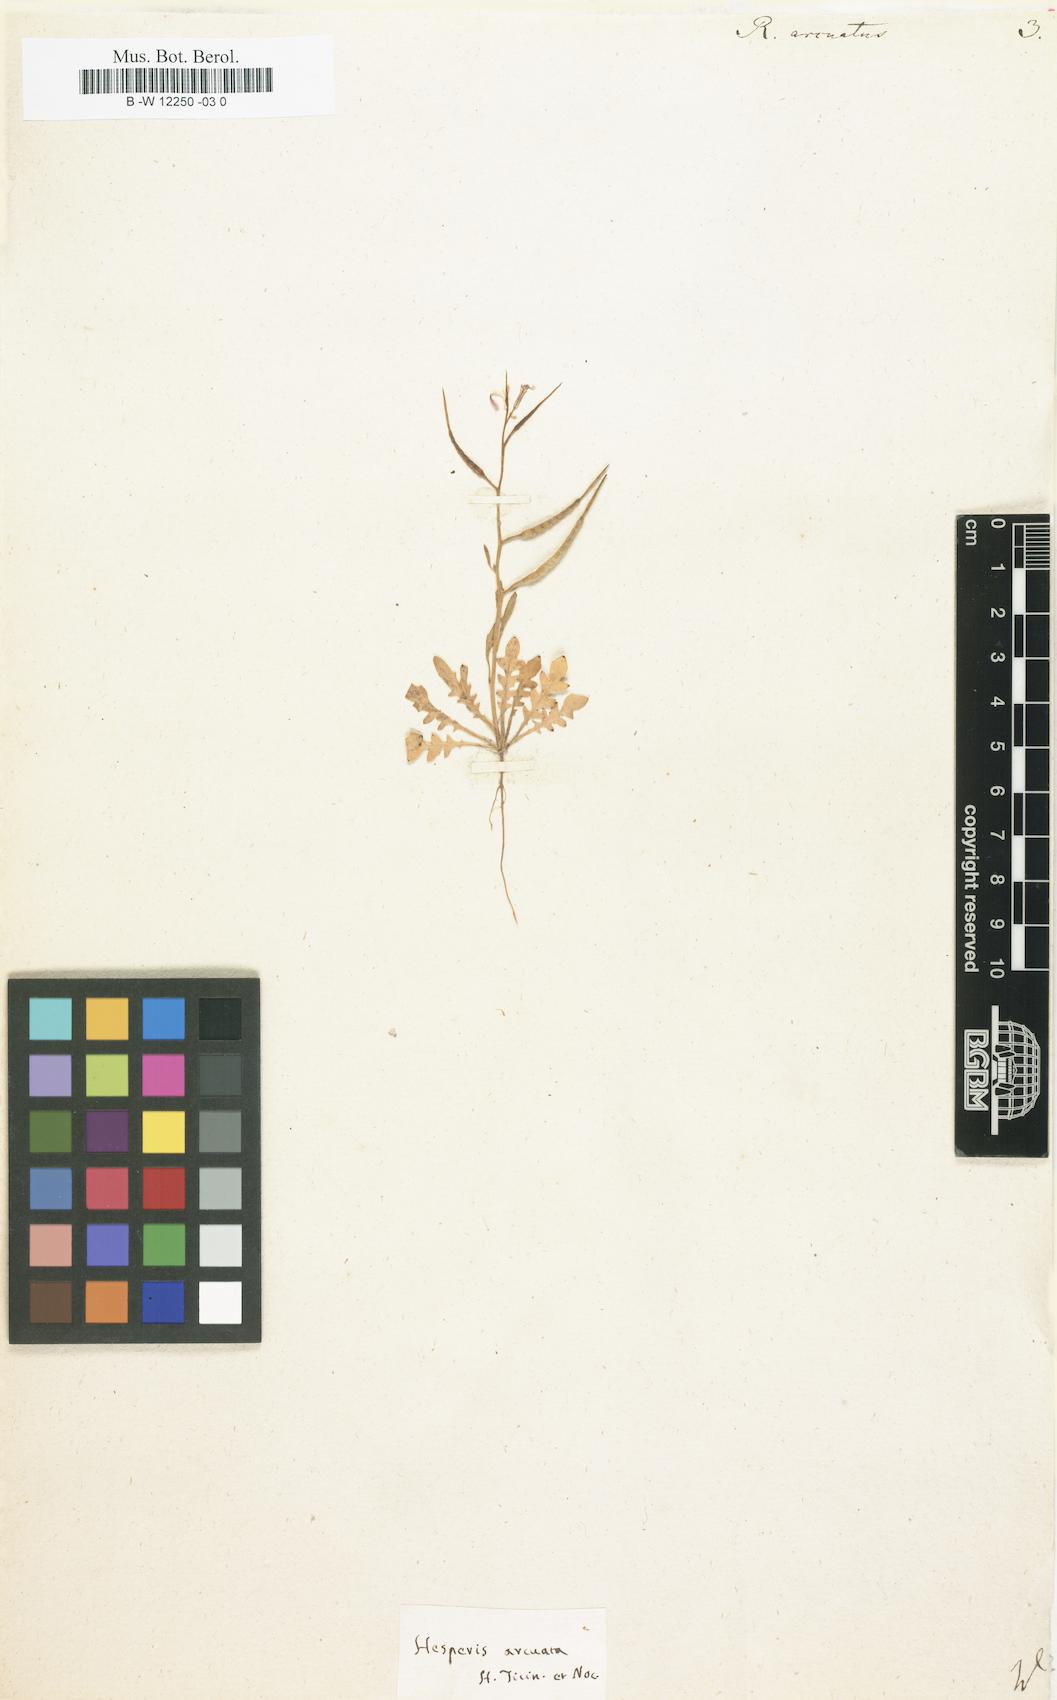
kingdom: Plantae
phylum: Tracheophyta
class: Magnoliopsida
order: Brassicales
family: Brassicaceae
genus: Chorispora
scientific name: Chorispora tenella
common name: Crossflower
